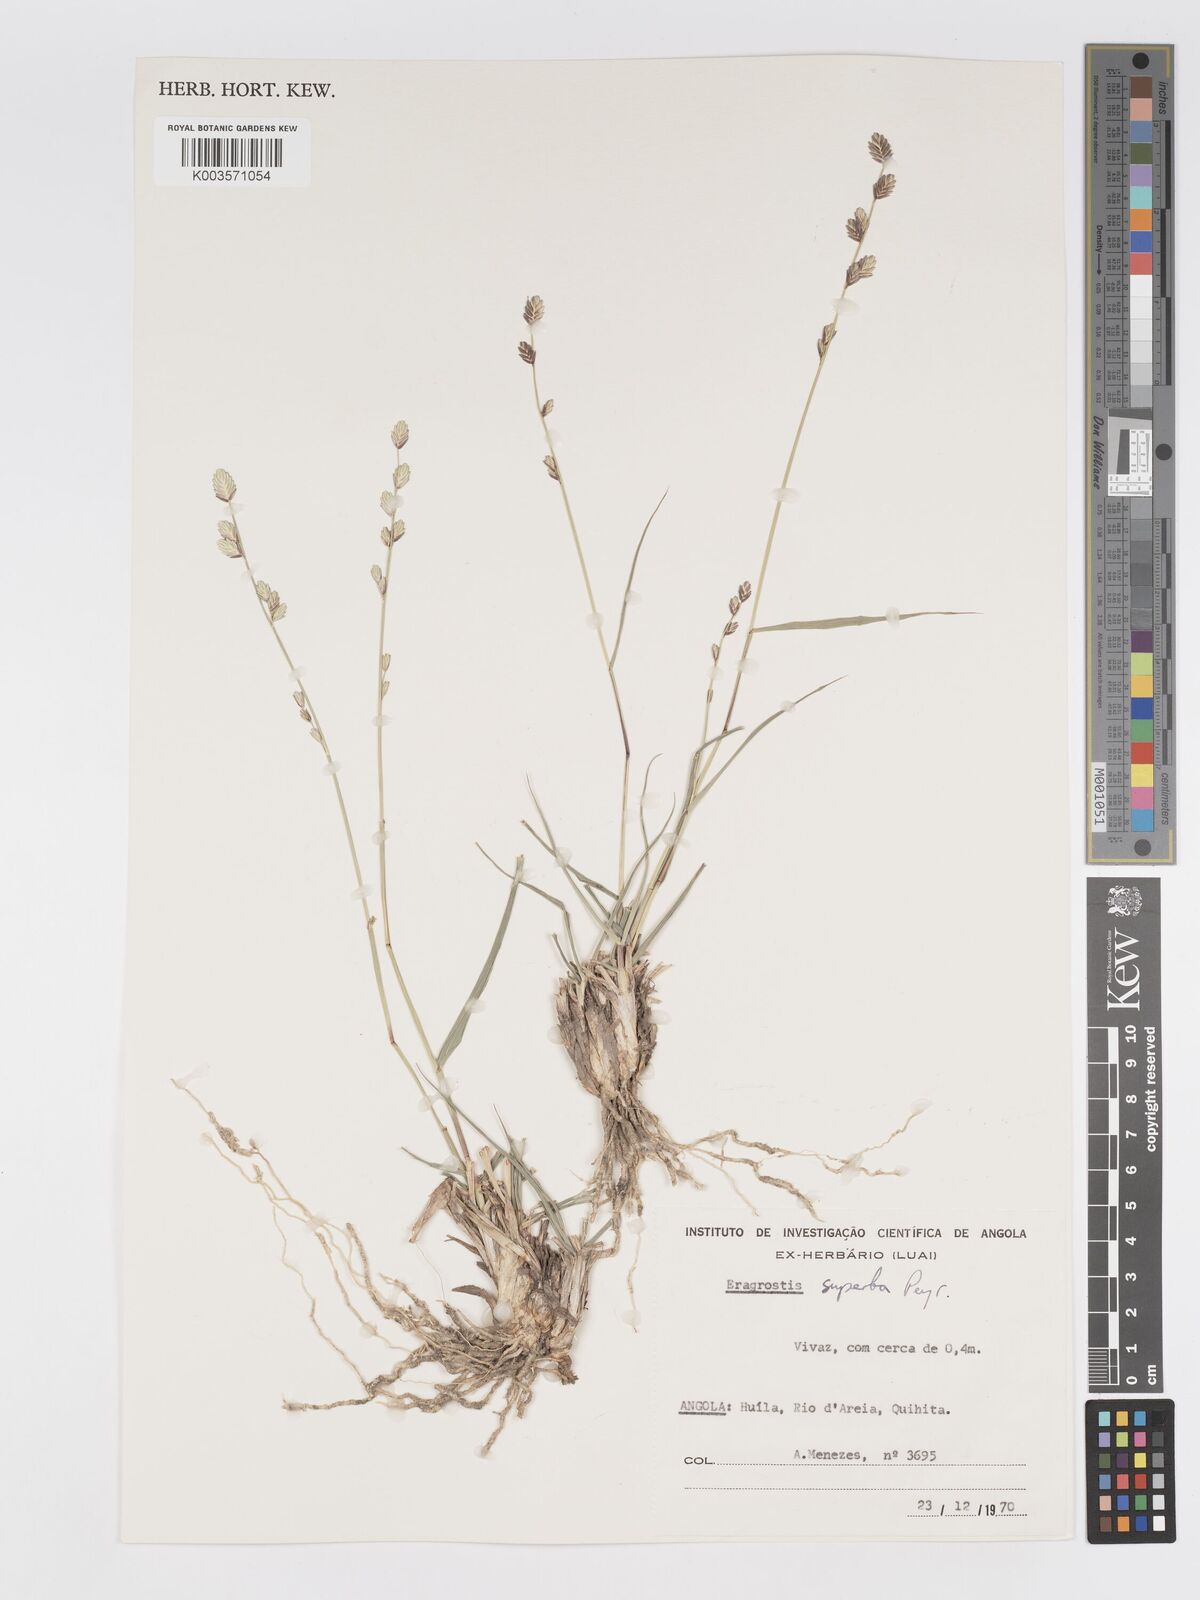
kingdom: Plantae
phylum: Tracheophyta
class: Liliopsida
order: Poales
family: Poaceae
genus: Eragrostis
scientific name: Eragrostis superba
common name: Wilman lovegrass
